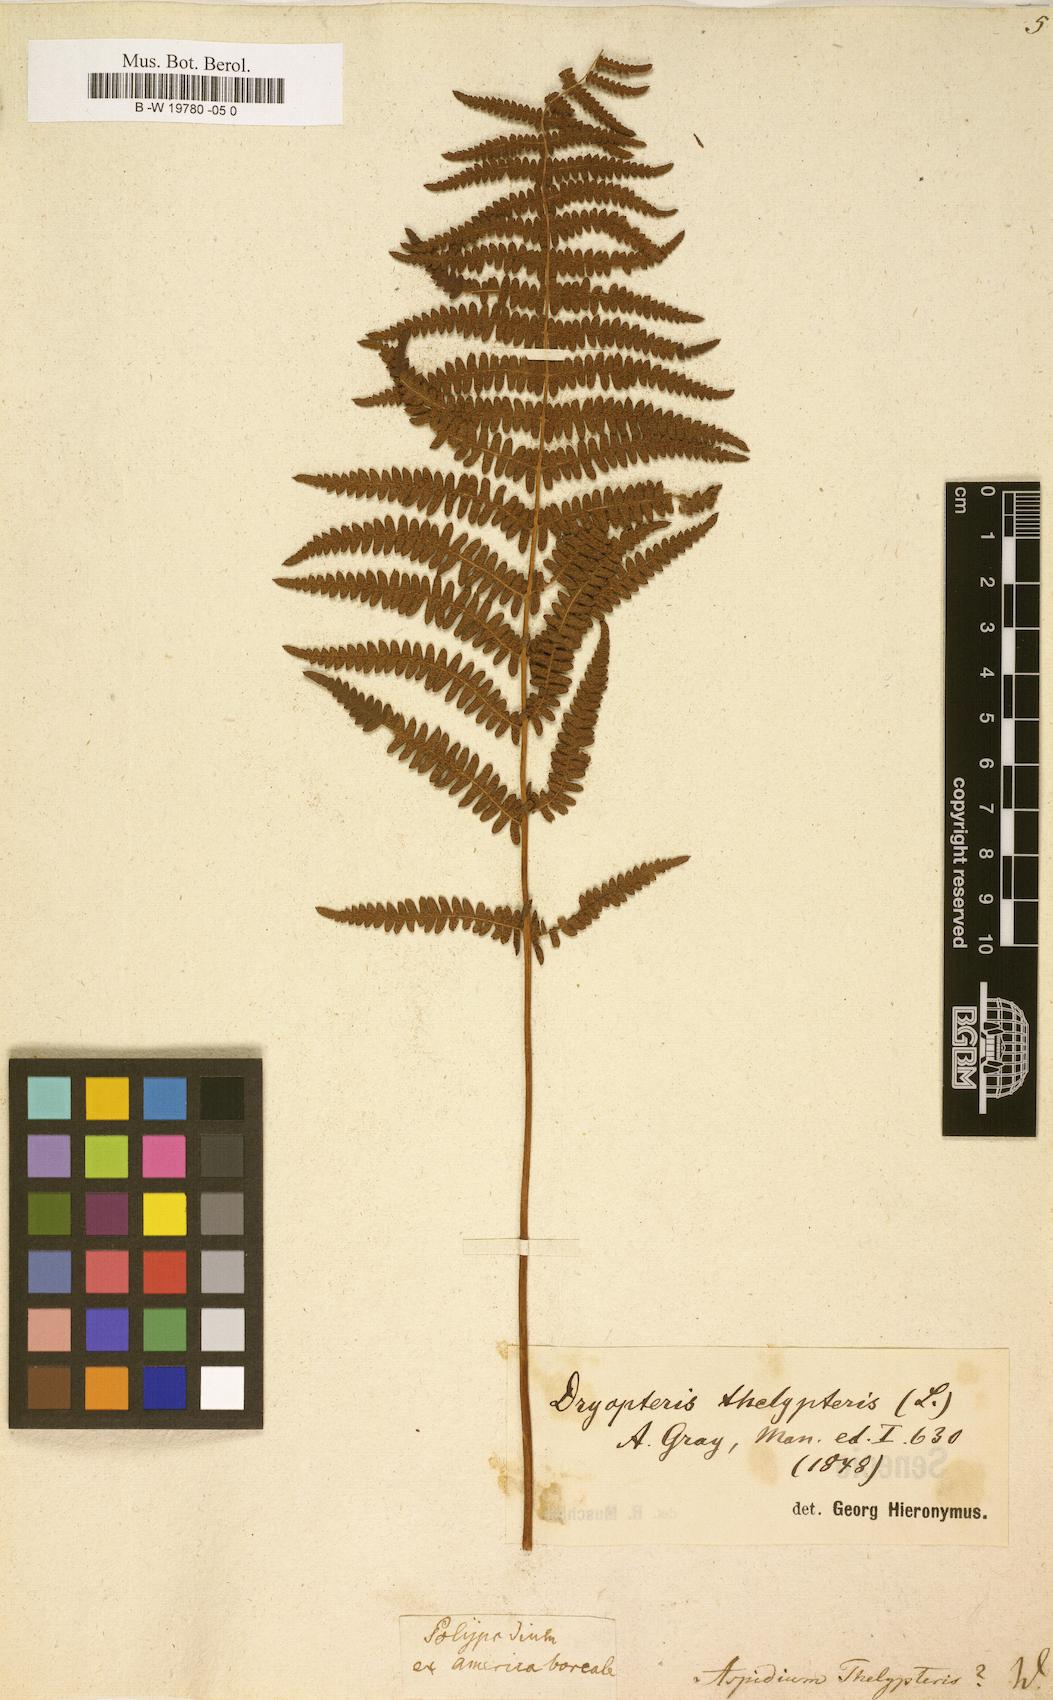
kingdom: Plantae
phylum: Tracheophyta
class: Polypodiopsida
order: Polypodiales
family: Thelypteridaceae
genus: Thelypteris
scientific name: Thelypteris palustris
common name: Marsh fern
